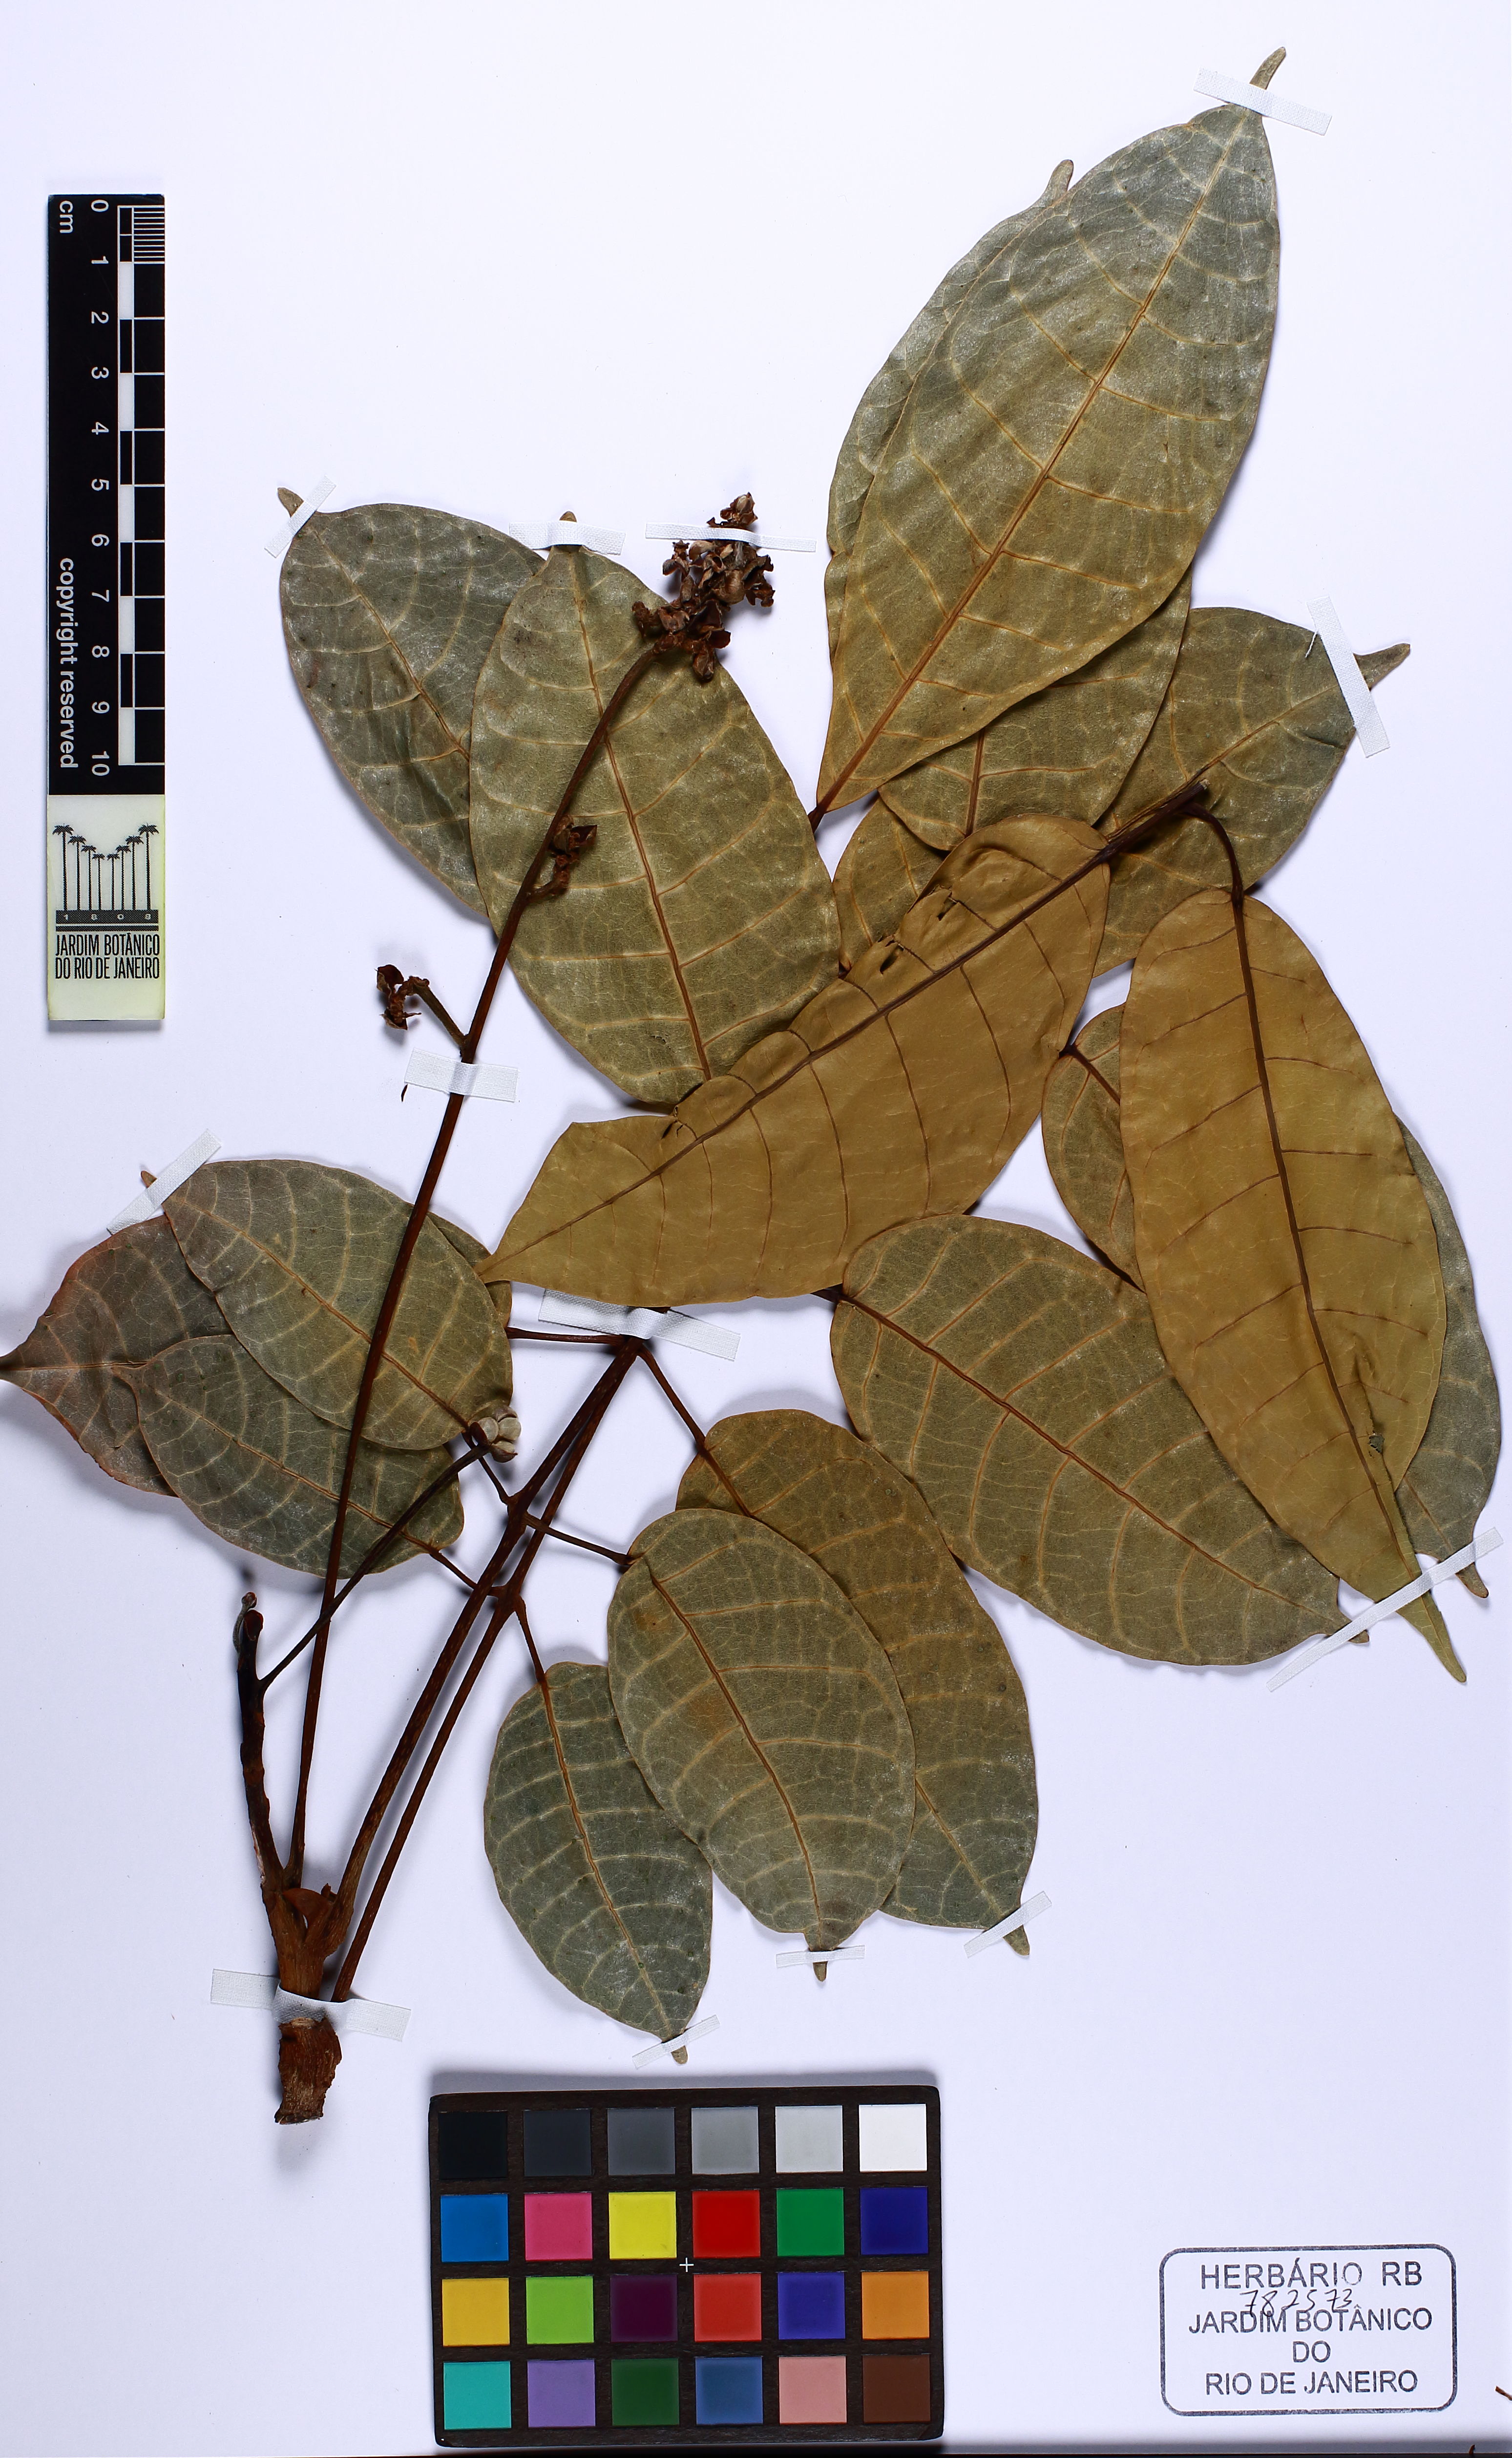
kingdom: Plantae
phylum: Tracheophyta
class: Magnoliopsida
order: Sapindales
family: Burseraceae
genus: Canarium
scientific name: Canarium ovatum
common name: Pilinut
